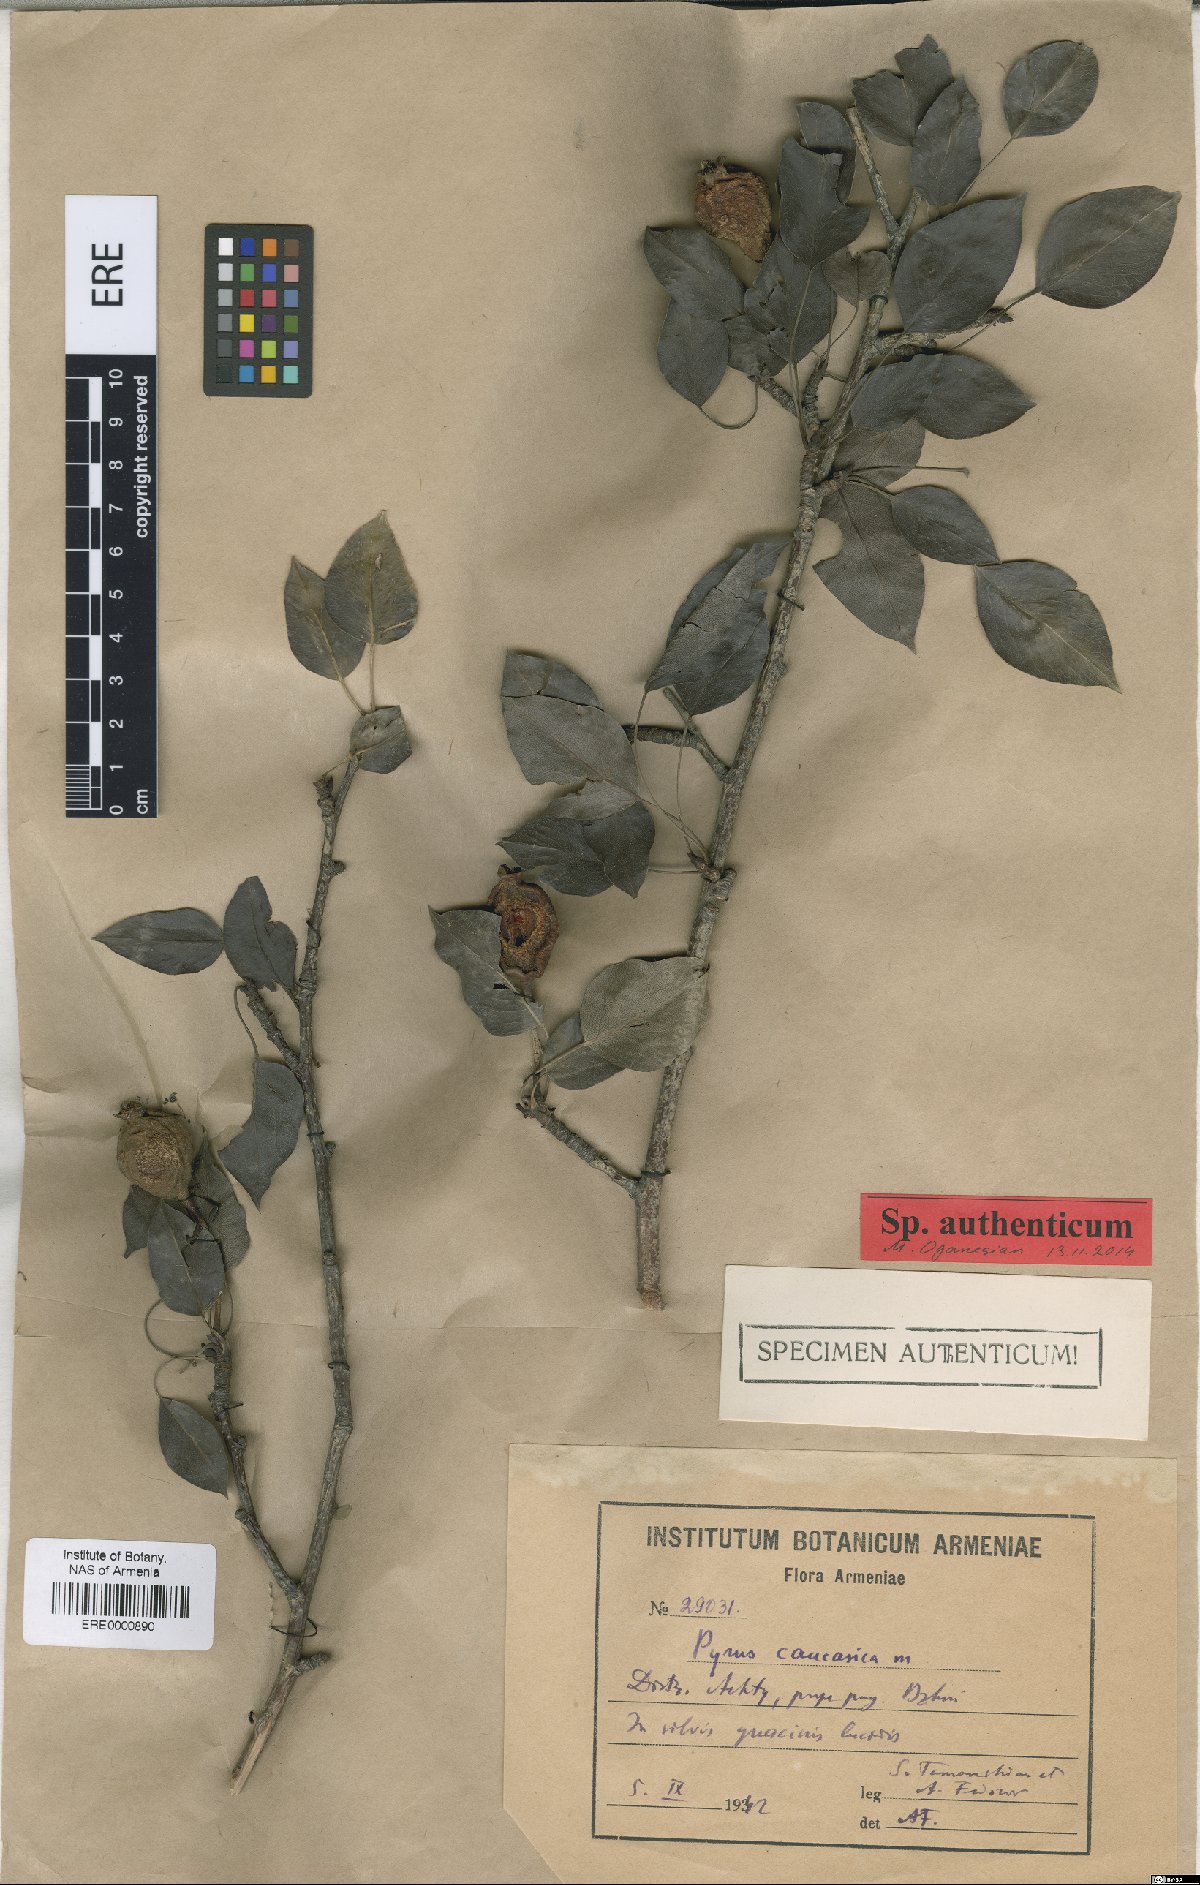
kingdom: Plantae
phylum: Tracheophyta
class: Magnoliopsida
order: Rosales
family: Rosaceae
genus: Pyrus
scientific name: Pyrus communis
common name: Pear
